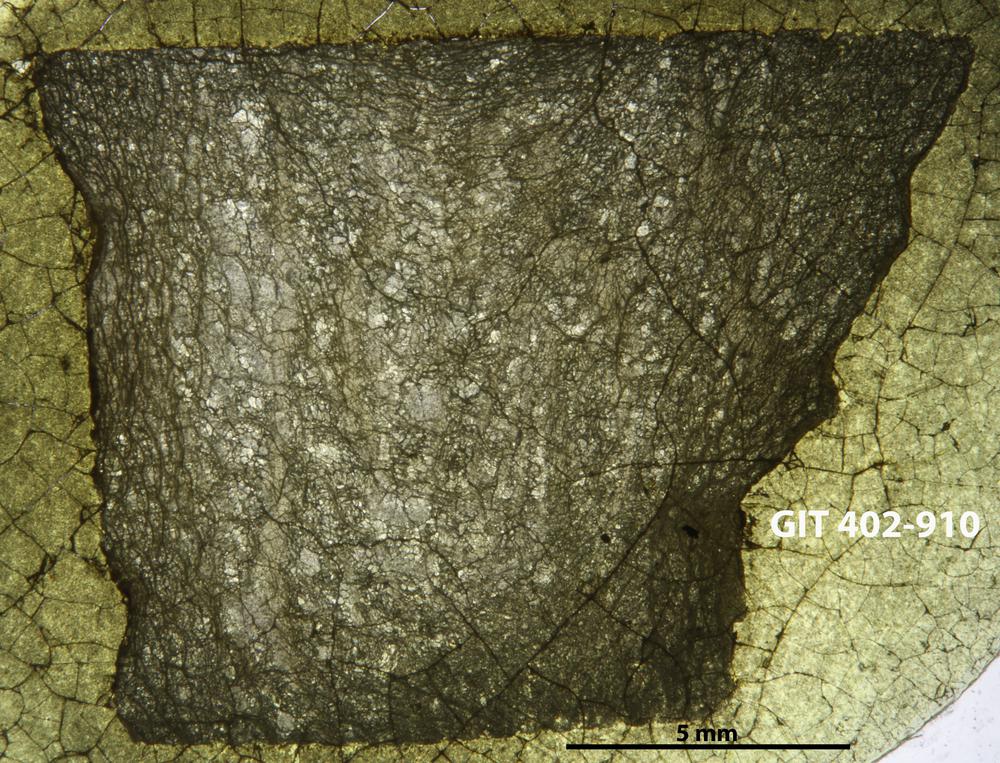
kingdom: Animalia
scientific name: Animalia
